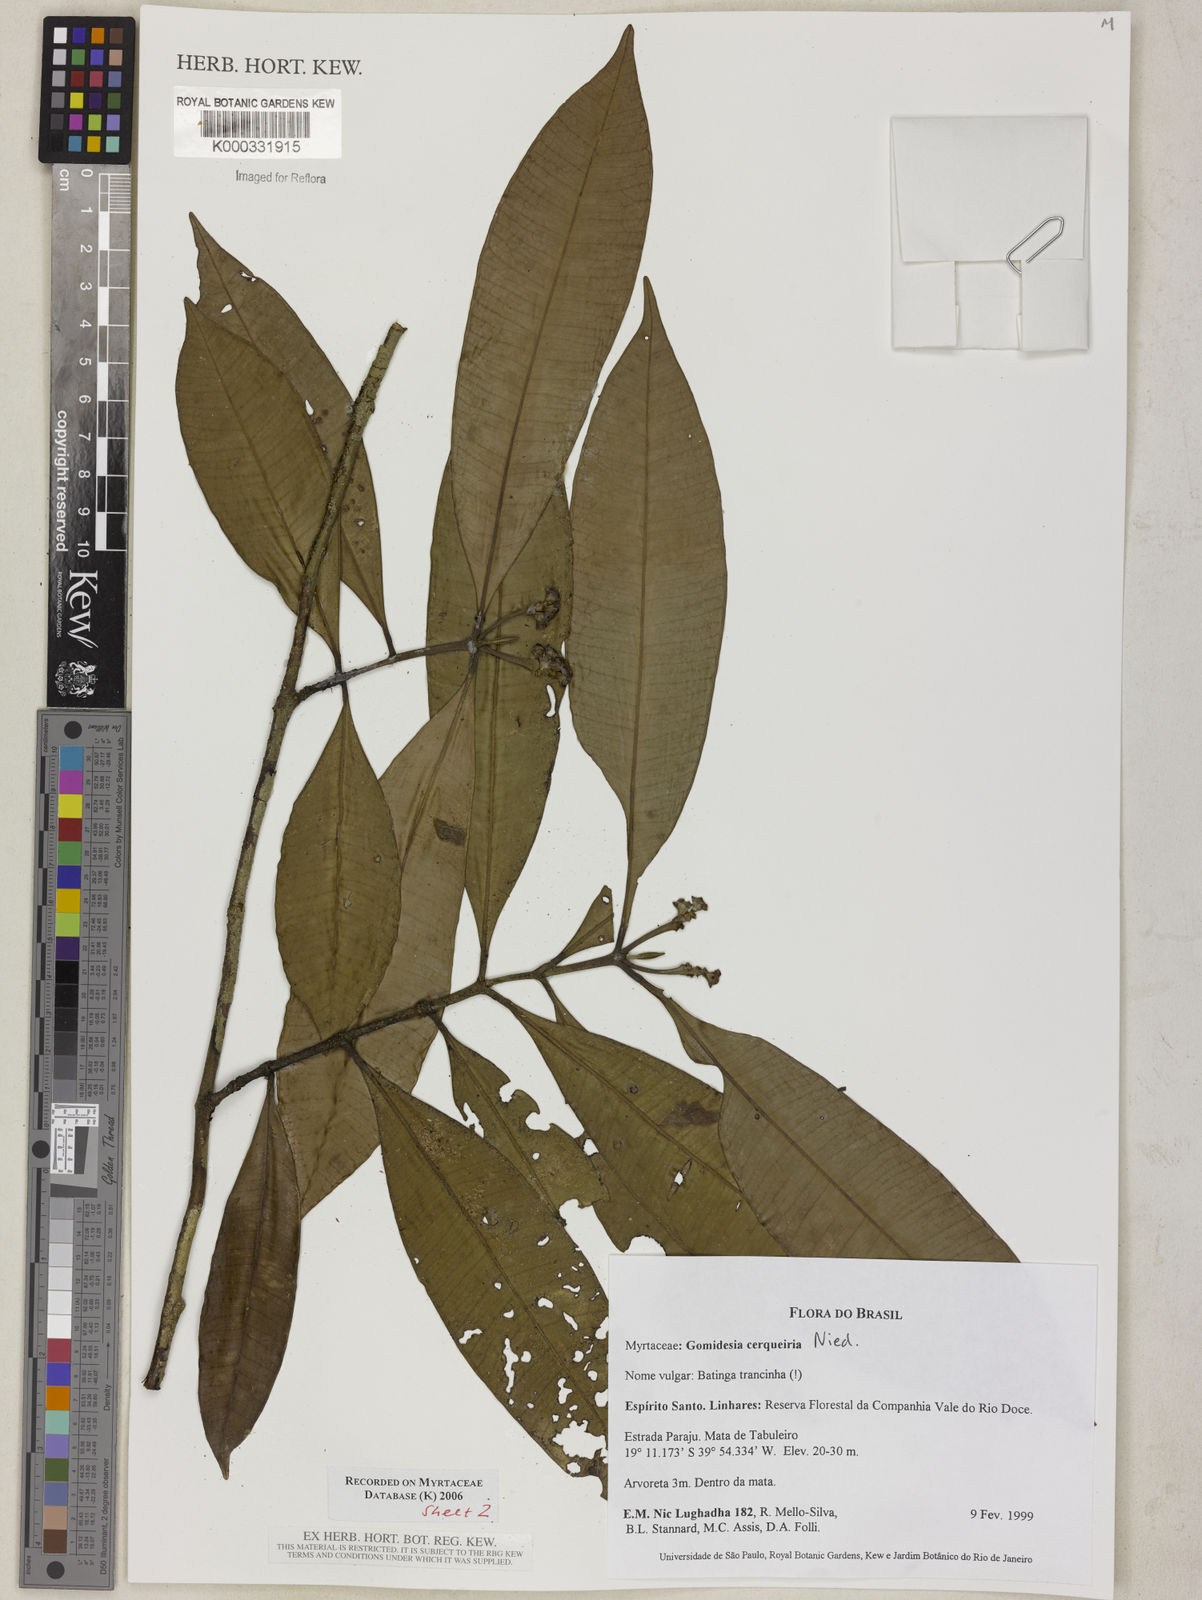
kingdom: Plantae
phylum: Tracheophyta
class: Magnoliopsida
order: Myrtales
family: Myrtaceae
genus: Myrcia
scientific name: Myrcia cerqueiria
